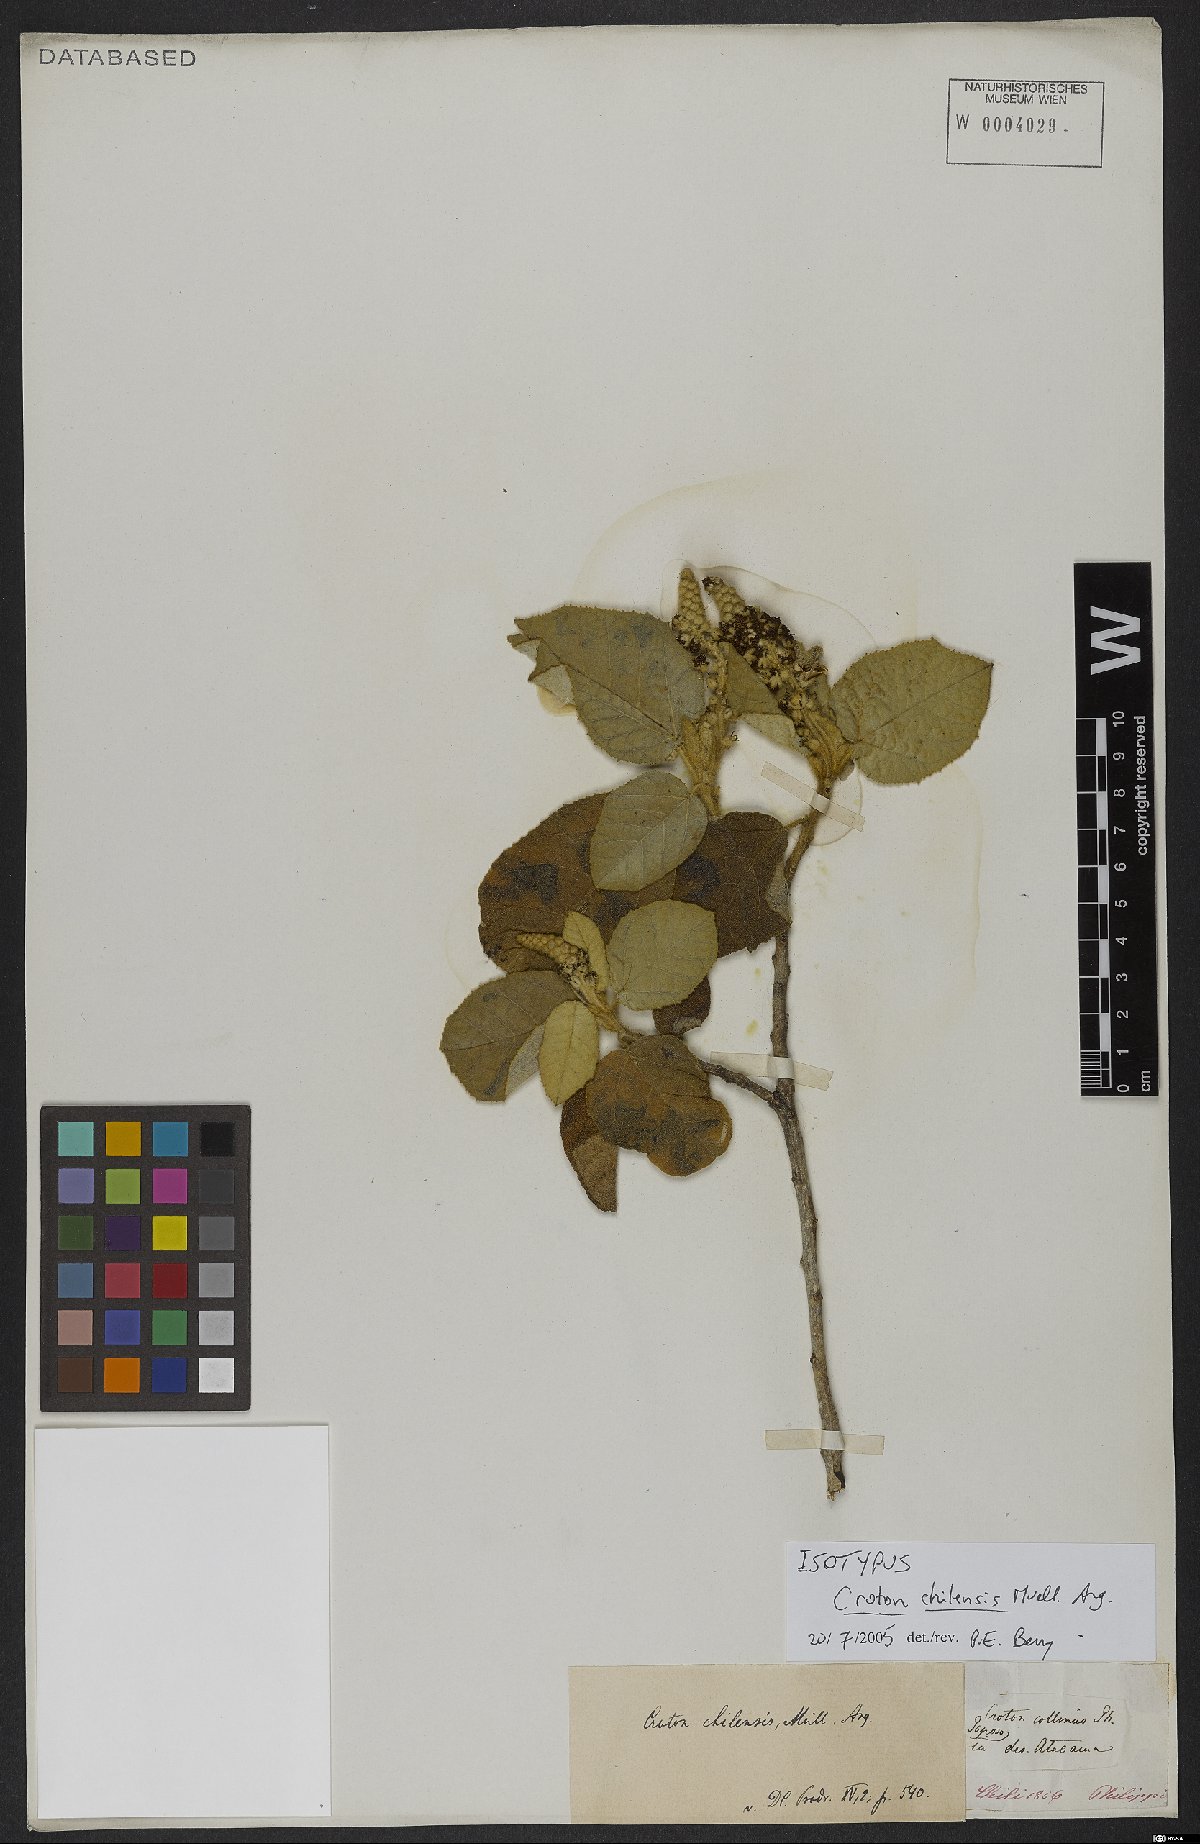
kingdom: Plantae
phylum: Tracheophyta
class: Magnoliopsida
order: Malpighiales
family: Euphorbiaceae
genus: Croton
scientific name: Croton chilensis
